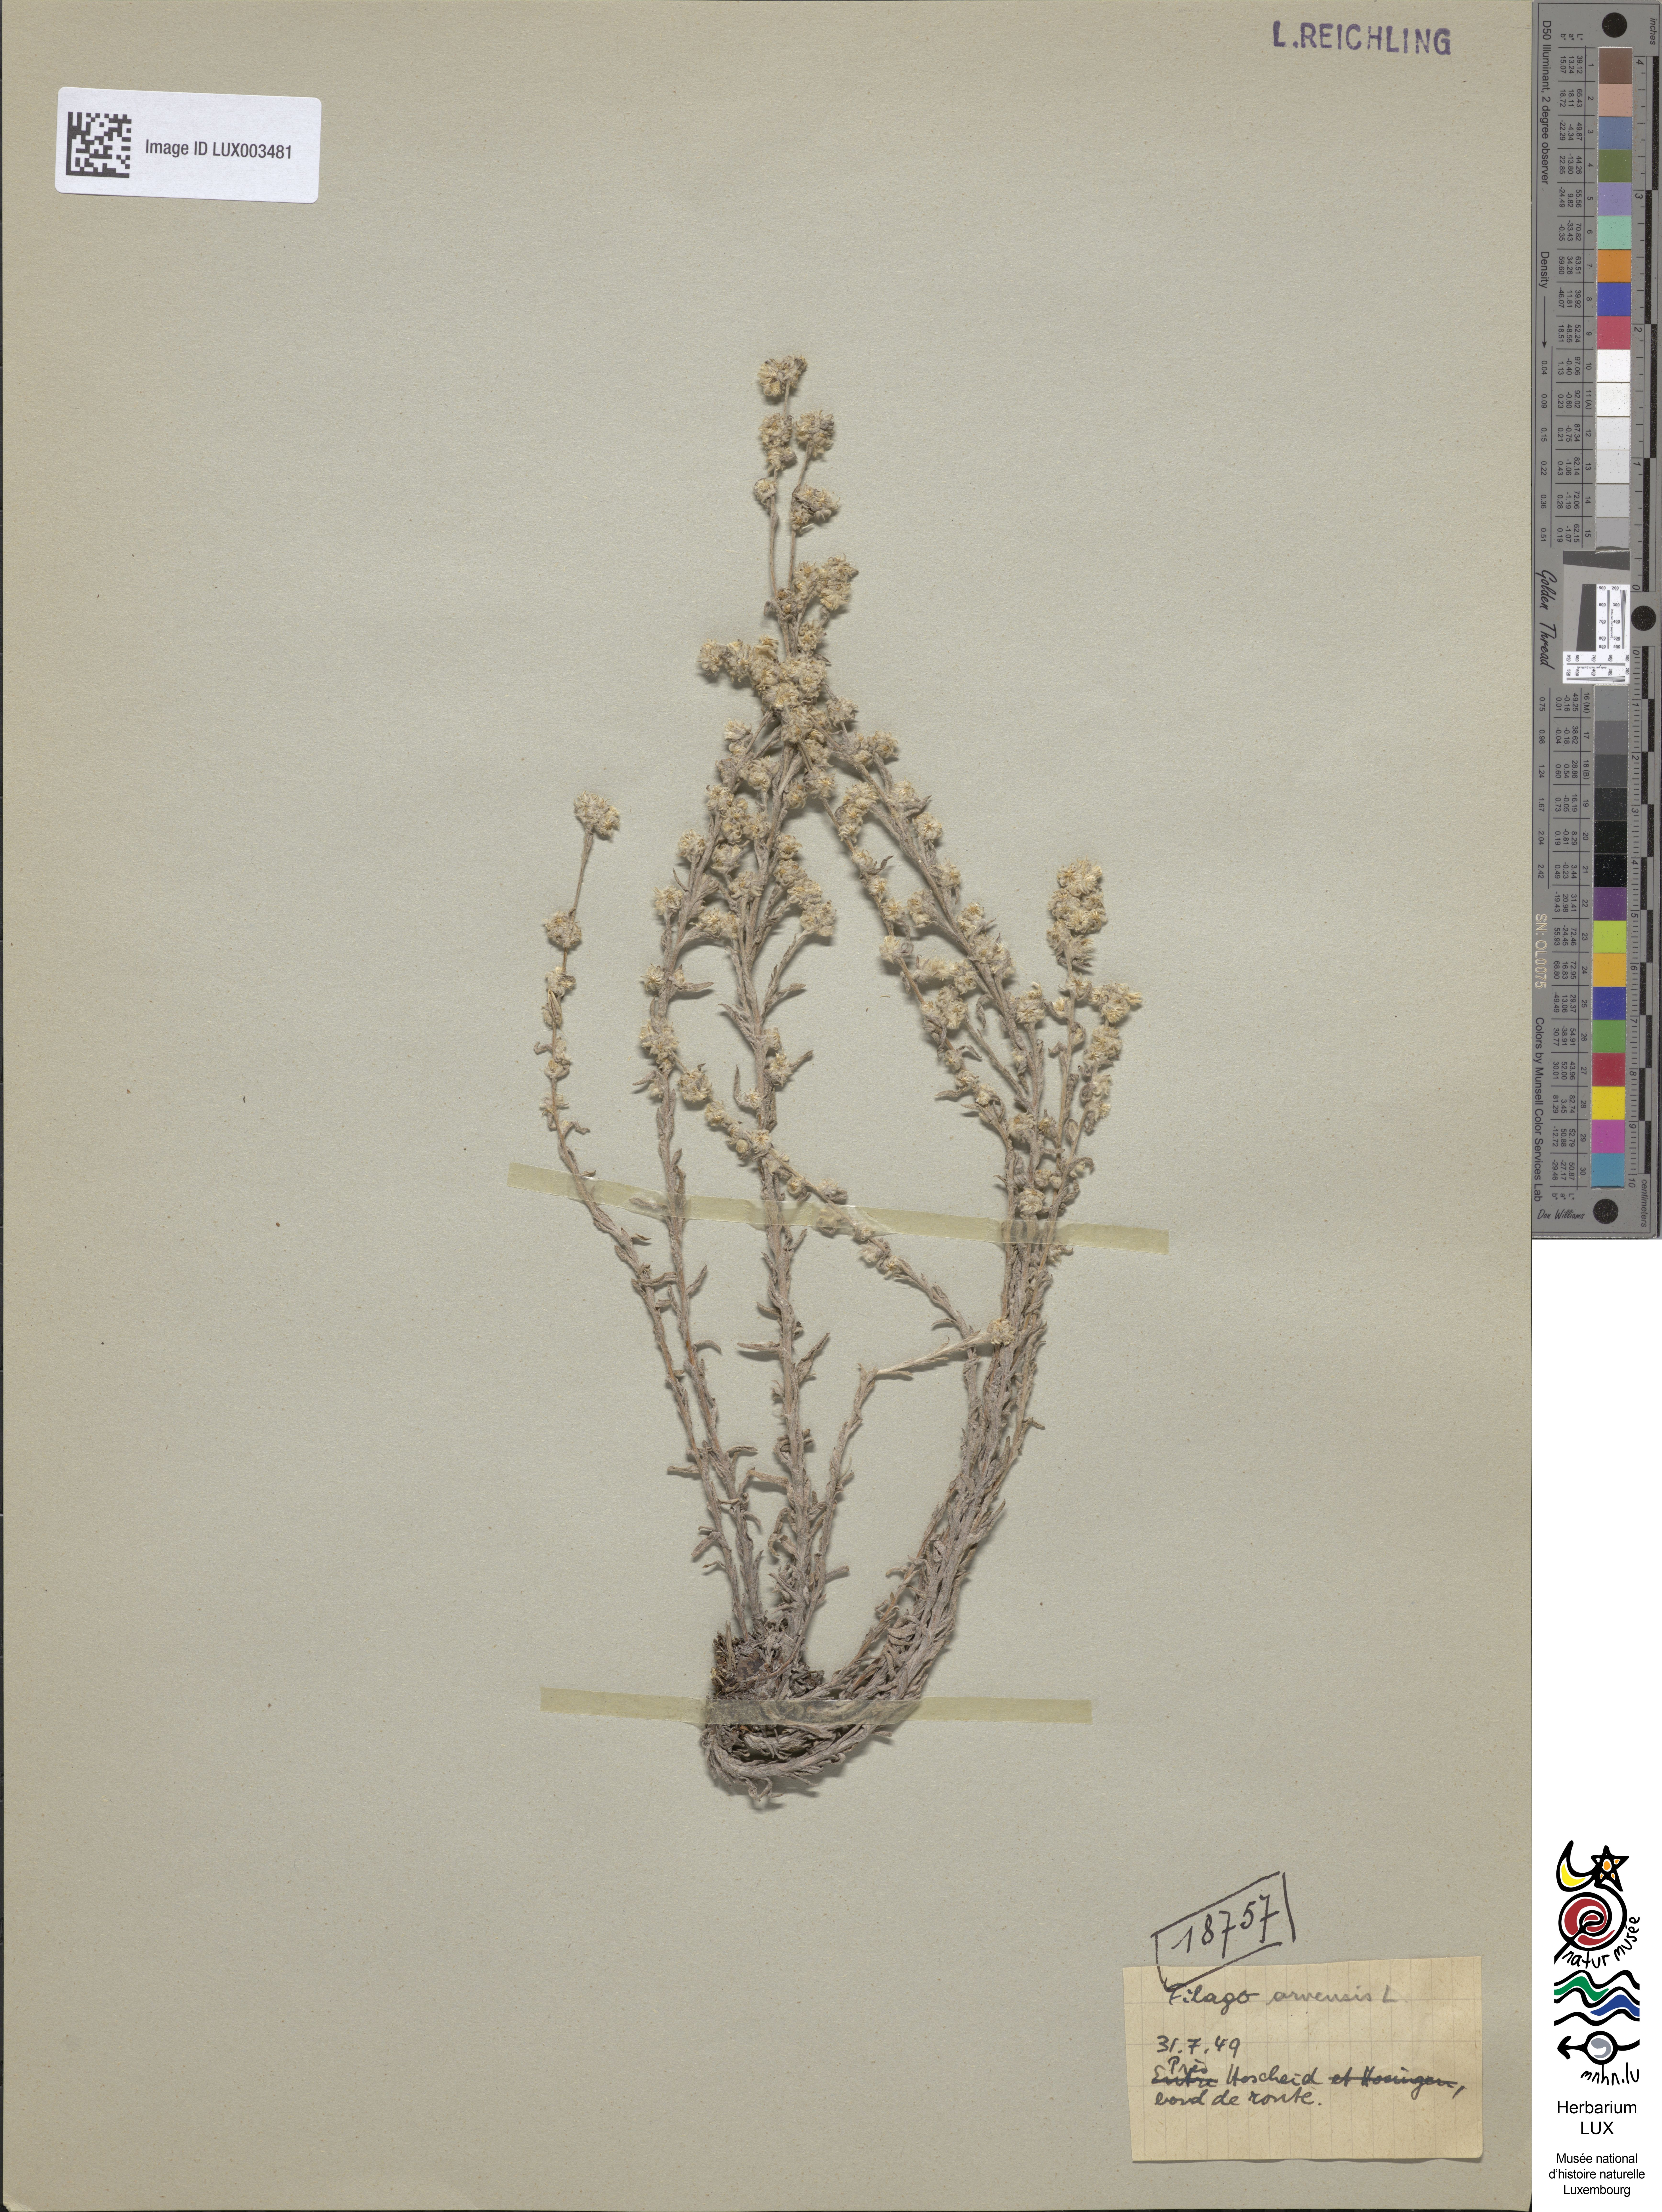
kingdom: Plantae
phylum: Tracheophyta
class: Magnoliopsida
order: Asterales
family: Asteraceae
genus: Filago
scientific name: Filago arvensis
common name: Field cudweed
